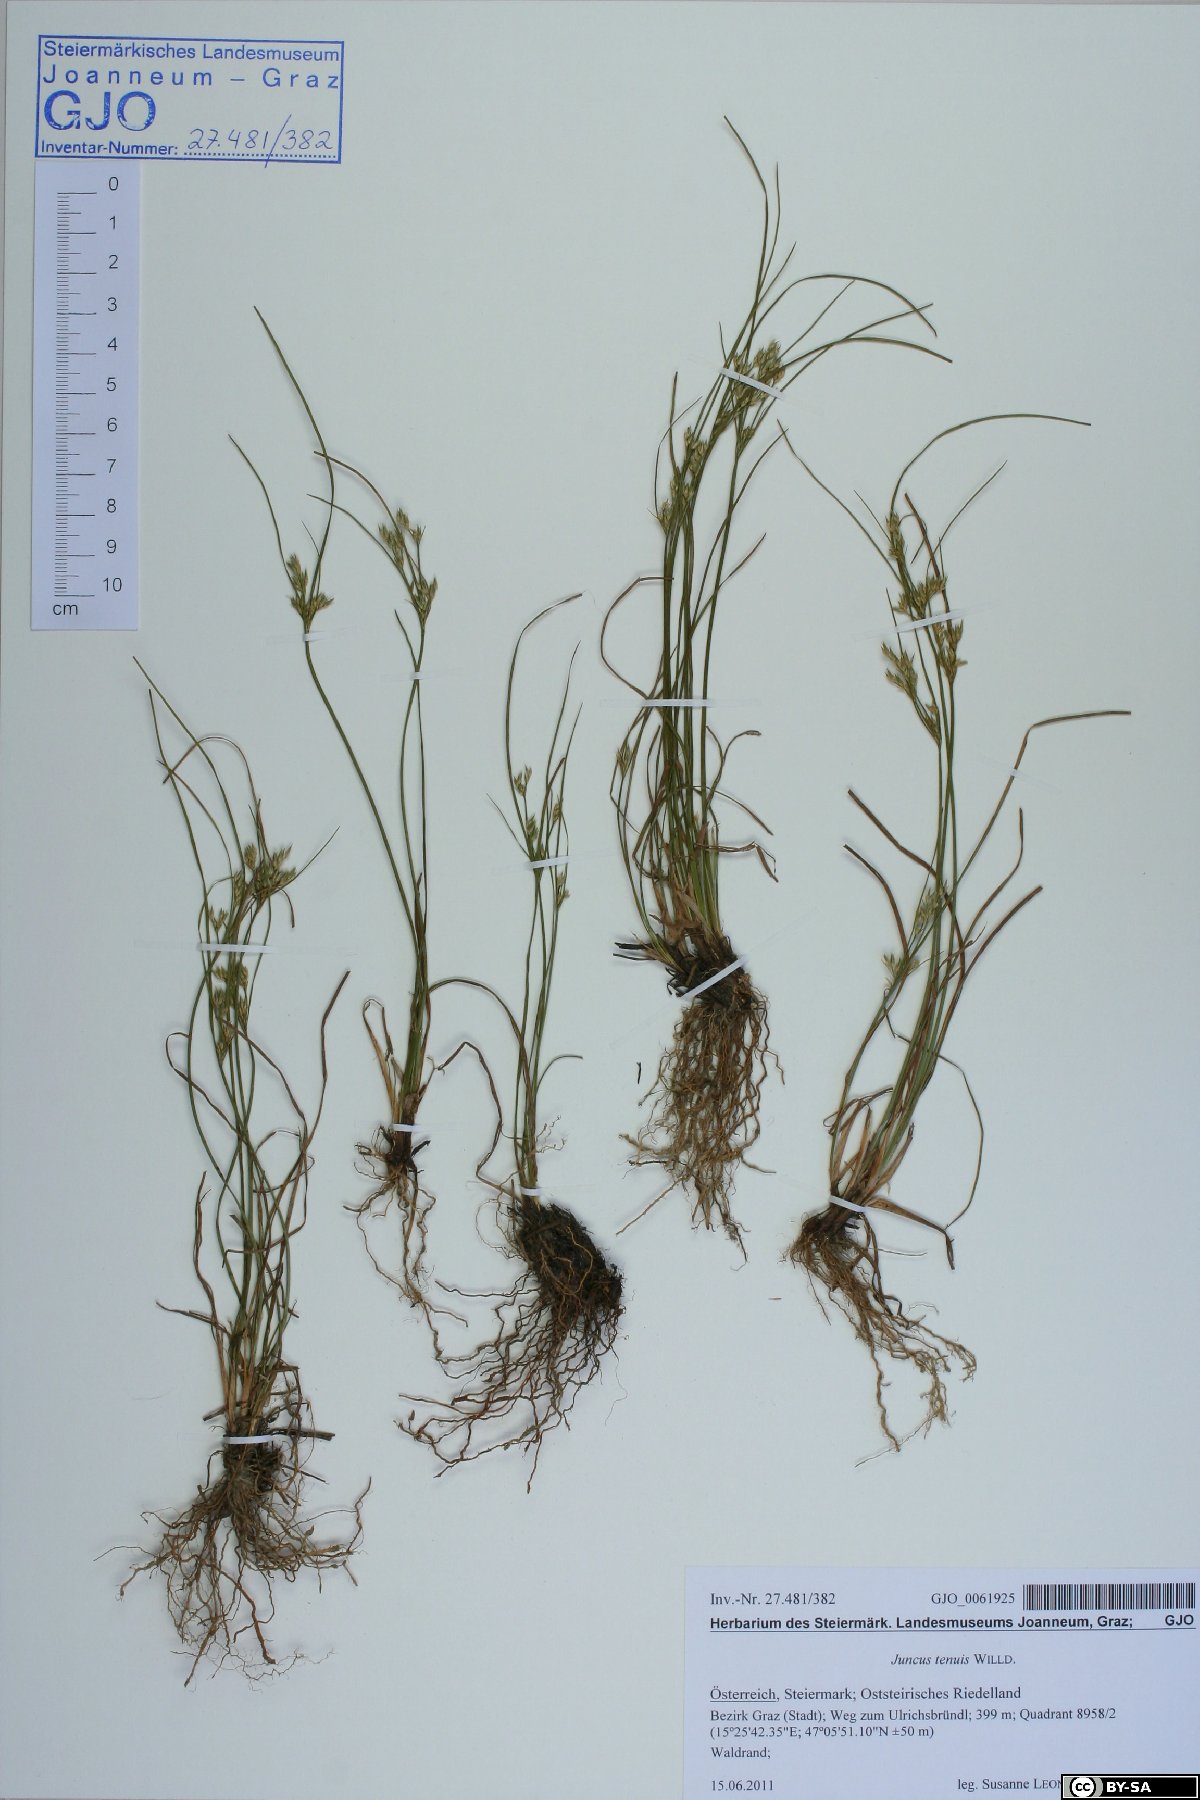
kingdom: Plantae
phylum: Tracheophyta
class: Liliopsida
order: Poales
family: Juncaceae
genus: Juncus
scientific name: Juncus tenuis
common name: Slender rush
